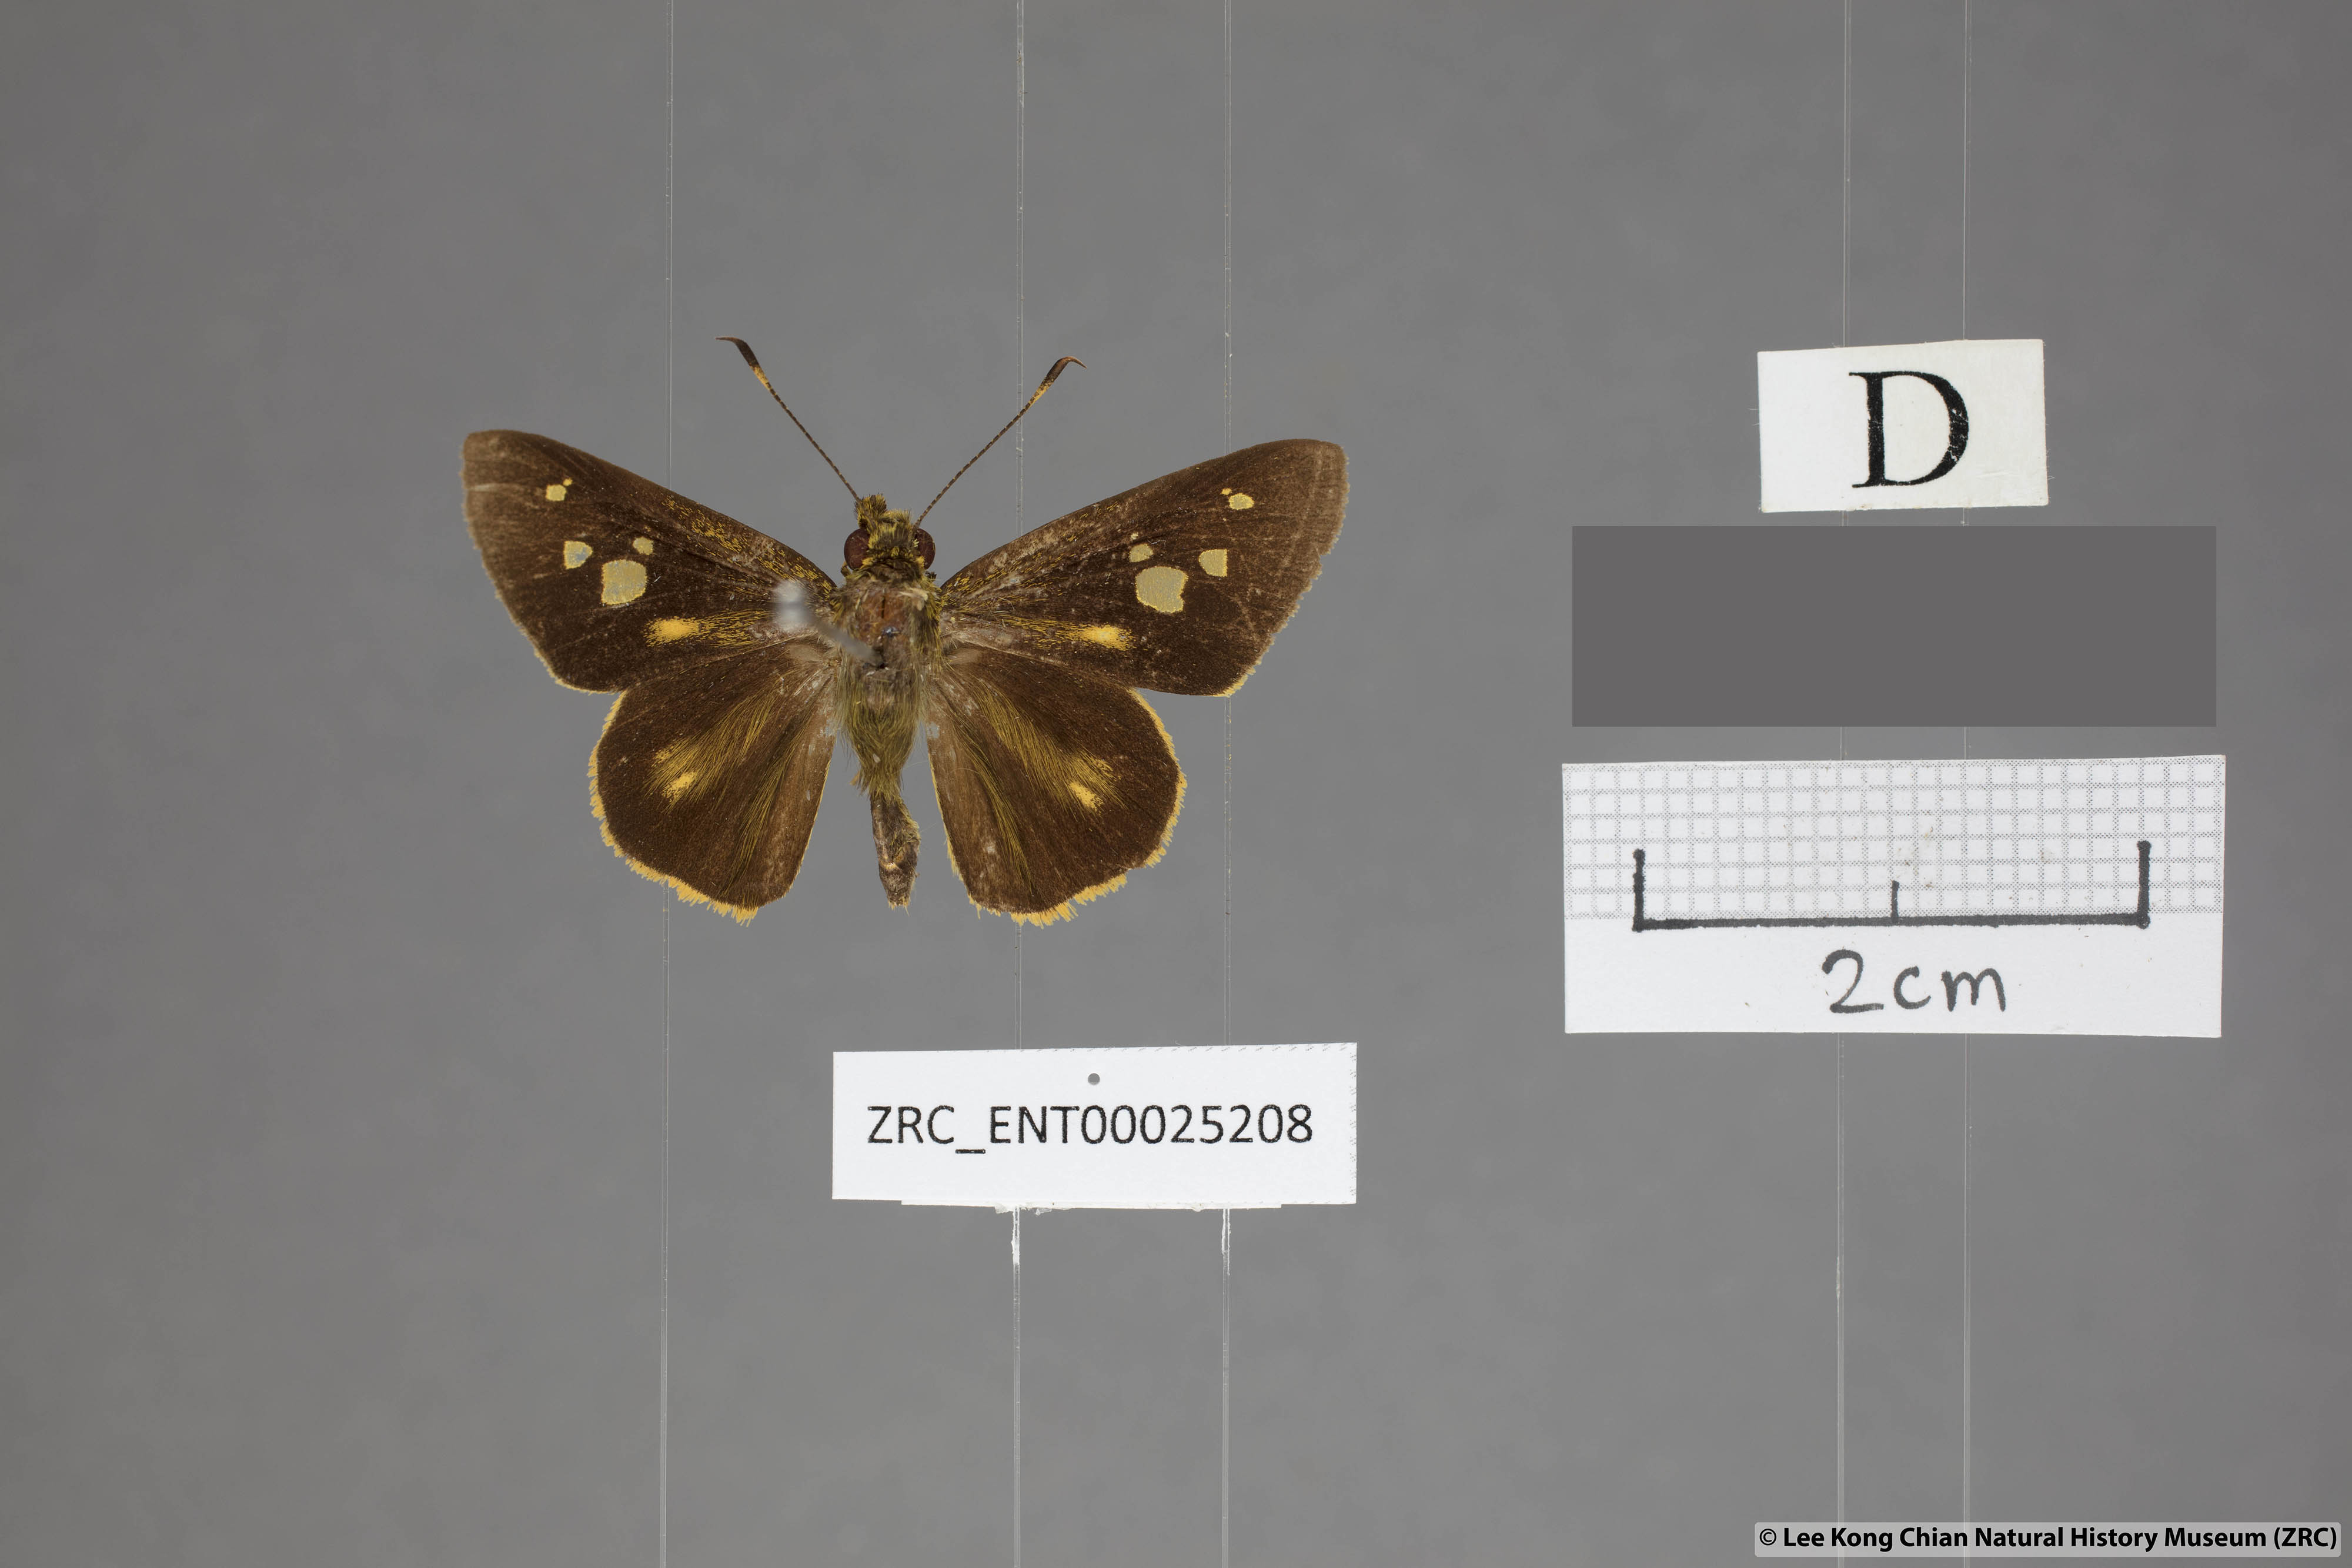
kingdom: Animalia
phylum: Arthropoda
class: Insecta
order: Lepidoptera
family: Hesperiidae
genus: Xanthoneura
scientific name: Xanthoneura corissa
